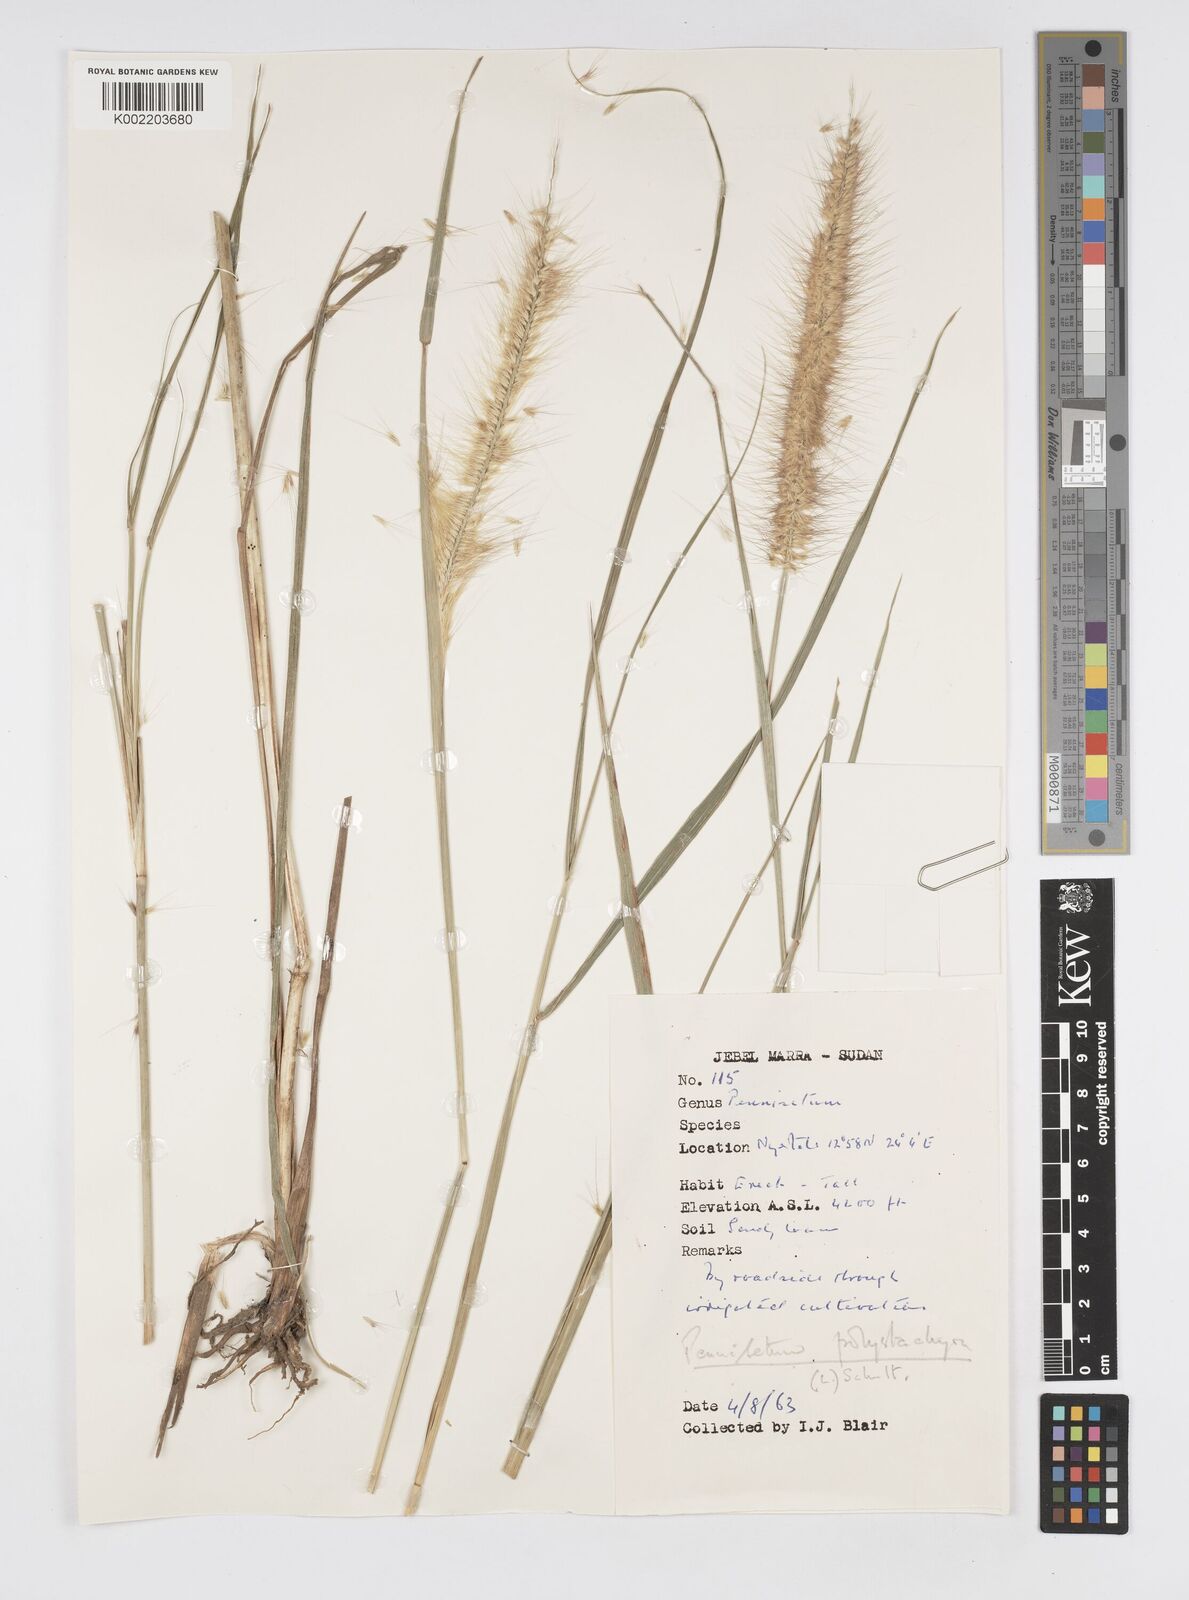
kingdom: Plantae
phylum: Tracheophyta
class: Liliopsida
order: Poales
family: Poaceae
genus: Setaria
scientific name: Setaria parviflora
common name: Knotroot bristle-grass
